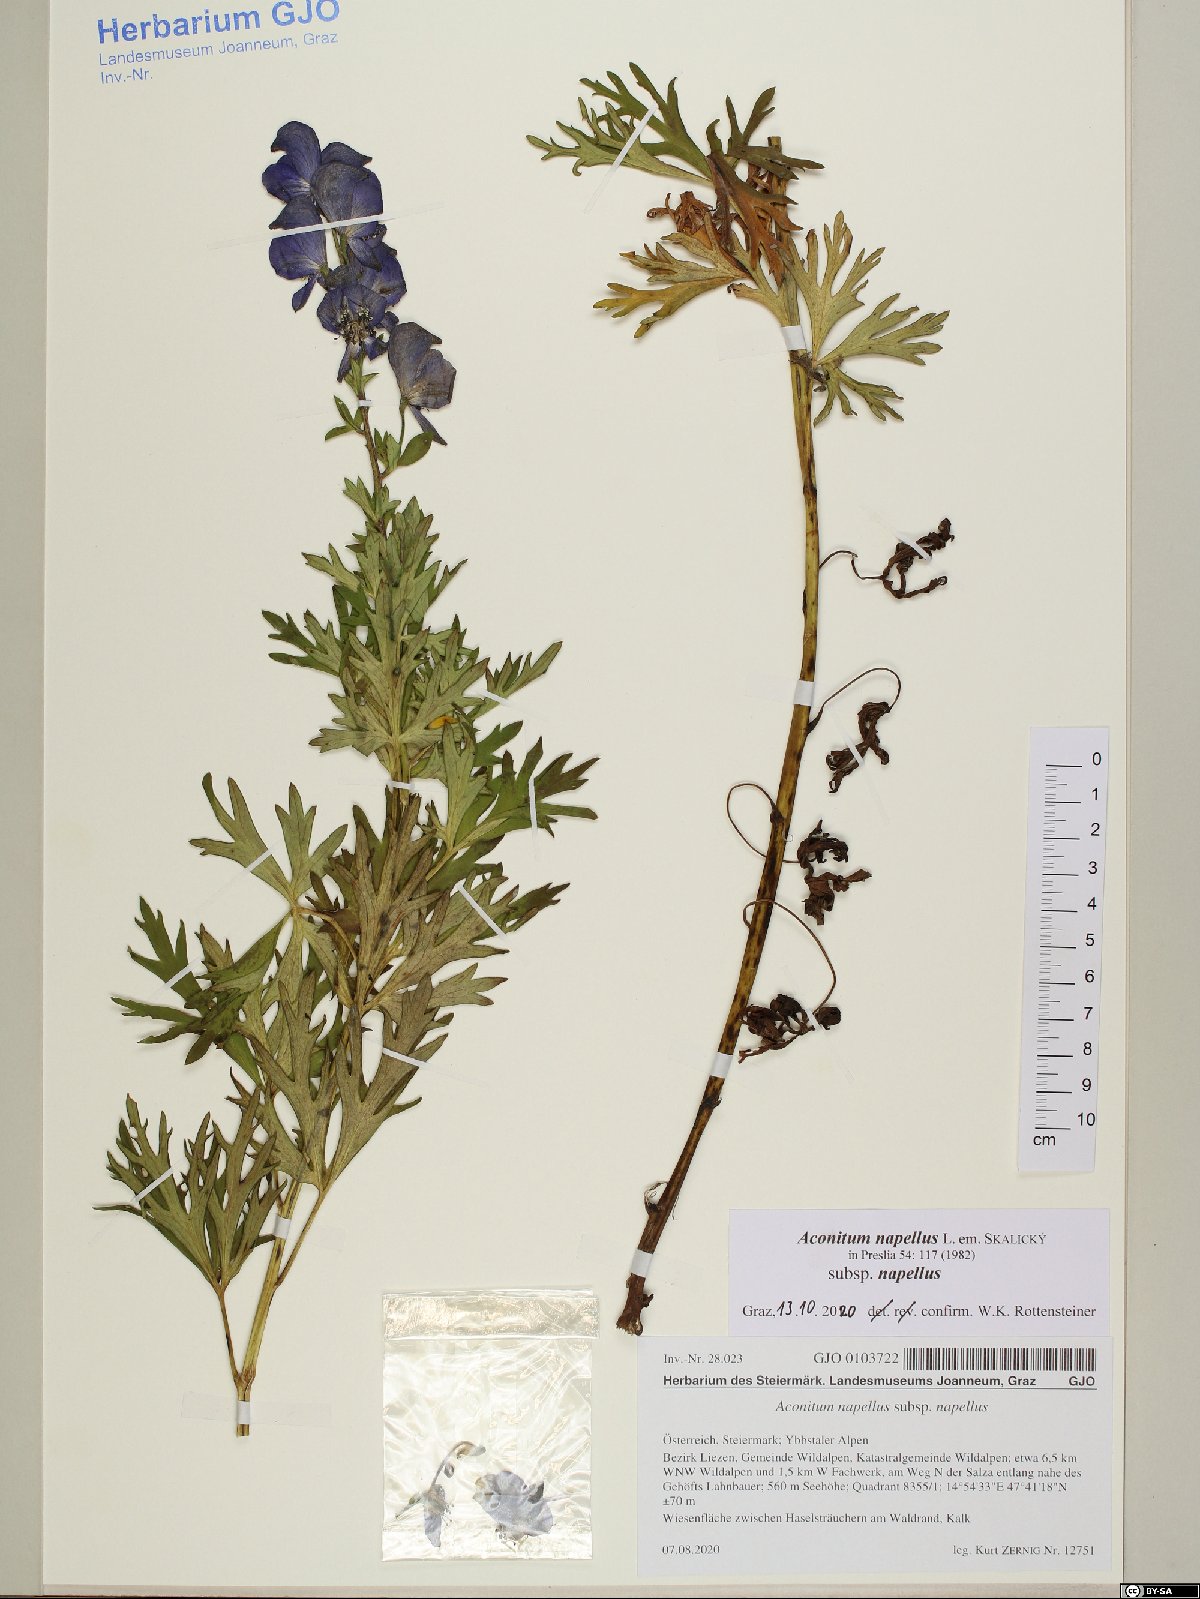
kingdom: Plantae
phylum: Tracheophyta
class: Magnoliopsida
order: Ranunculales
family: Ranunculaceae
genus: Aconitum
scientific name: Aconitum napellus
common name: Garden monkshood
